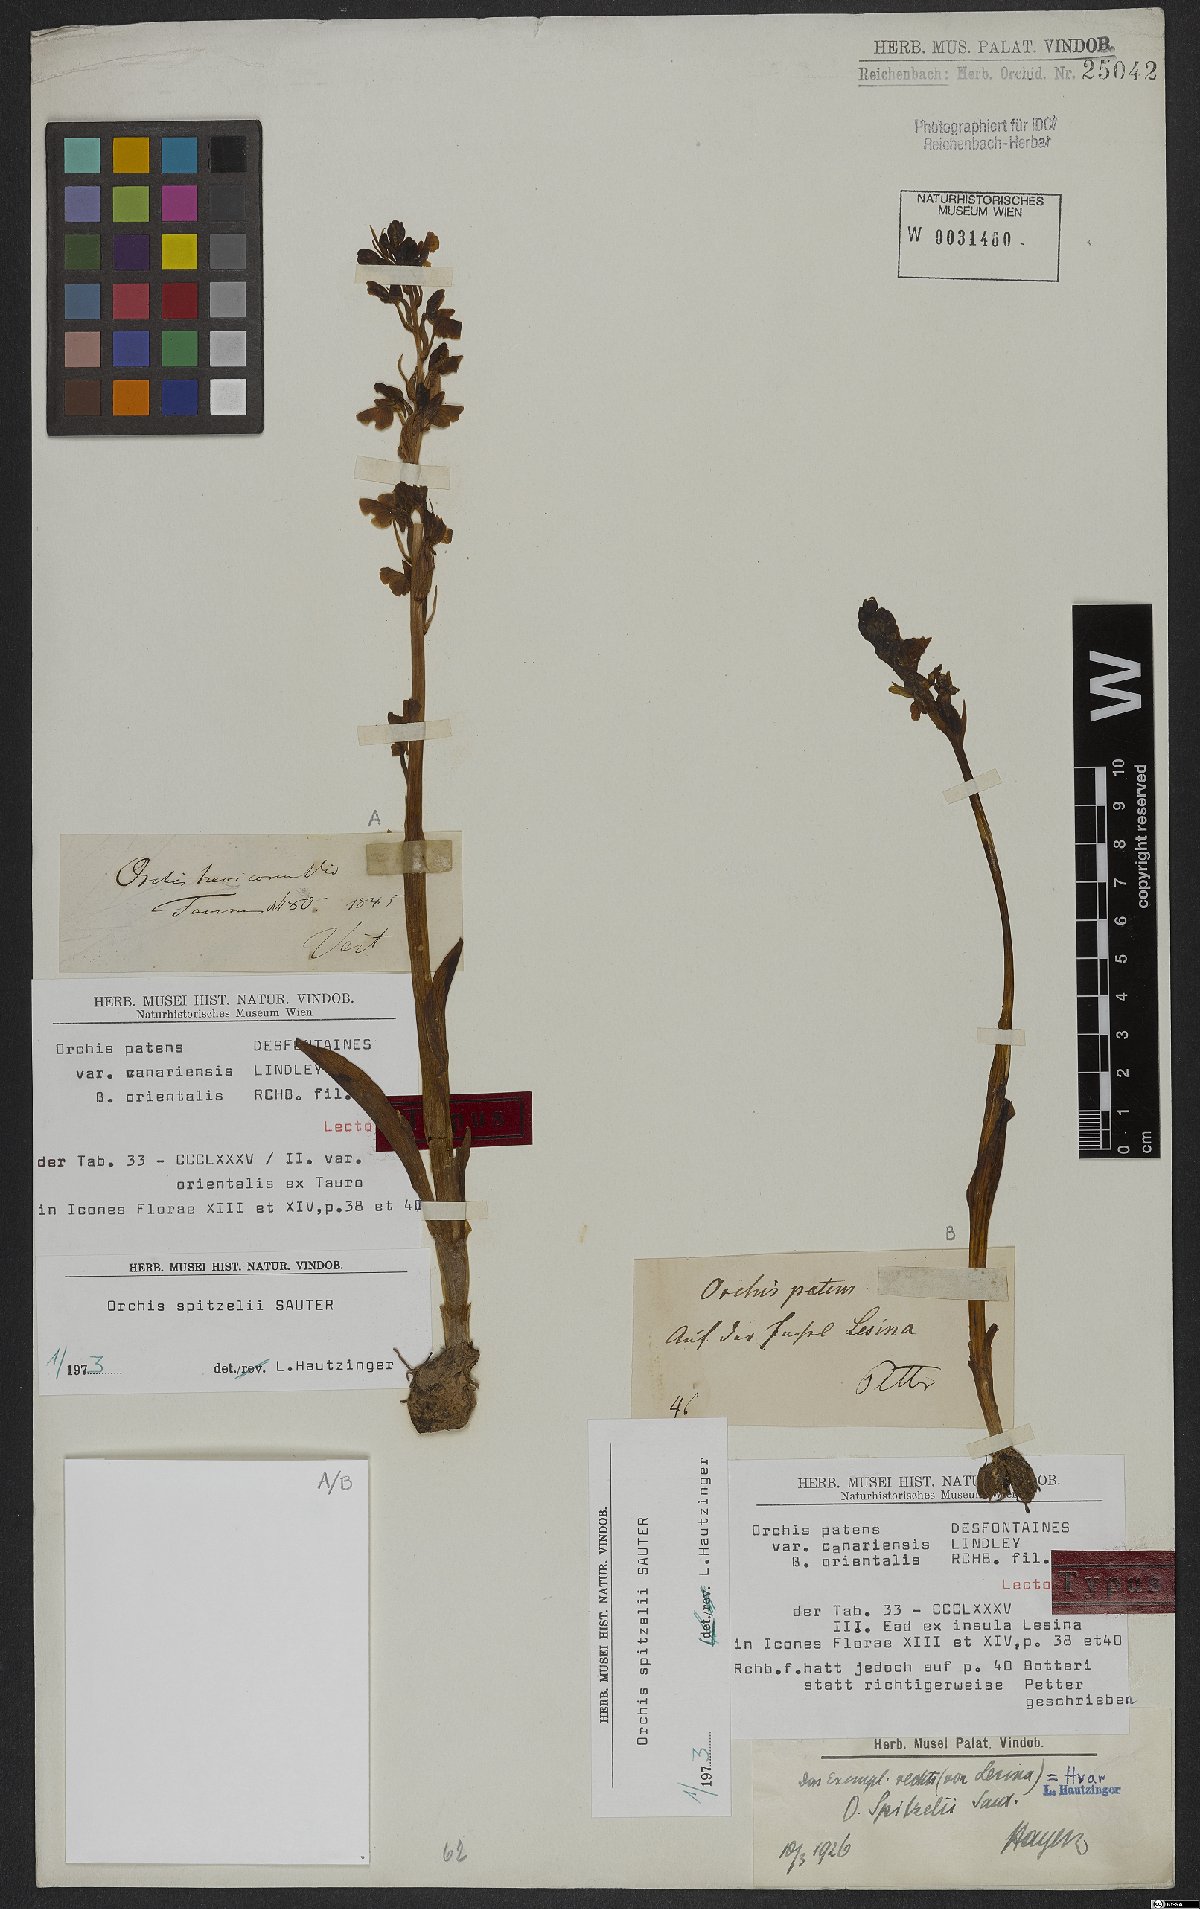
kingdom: Plantae
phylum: Tracheophyta
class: Liliopsida
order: Asparagales
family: Orchidaceae
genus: Orchis
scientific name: Orchis spitzelii
